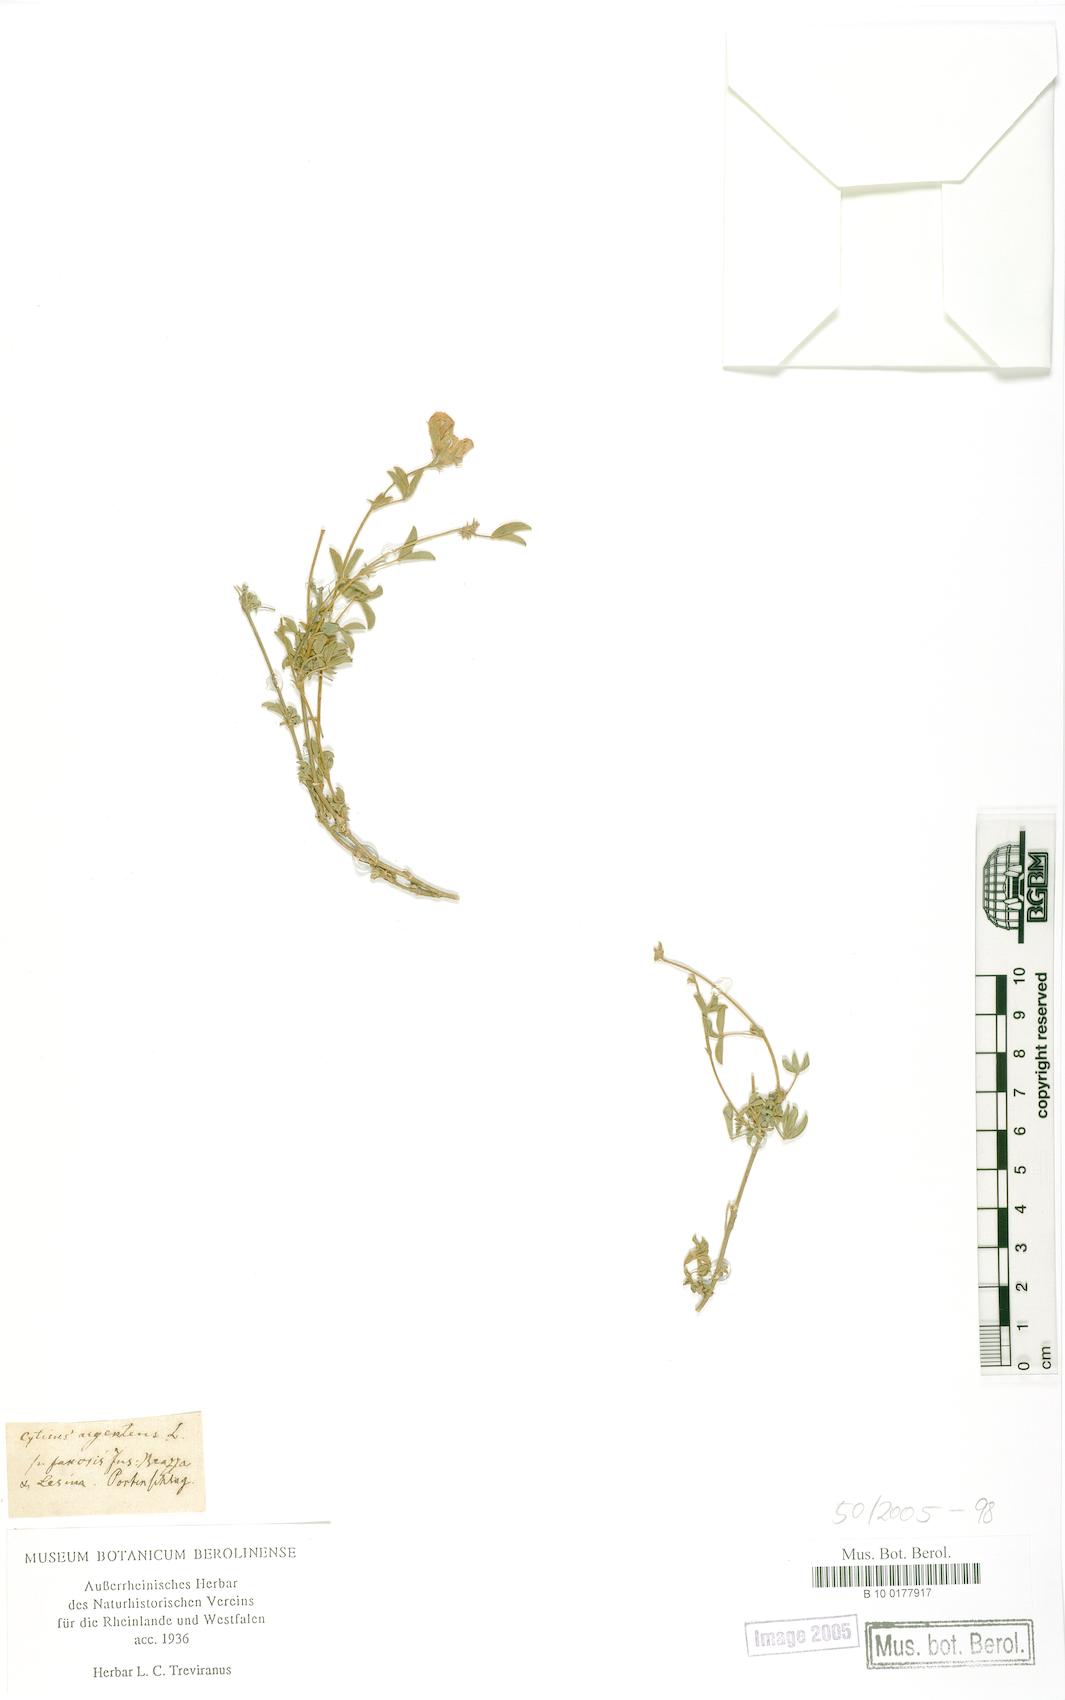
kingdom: Plantae
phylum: Tracheophyta
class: Magnoliopsida
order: Fabales
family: Fabaceae
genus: Argyrolobium
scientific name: Argyrolobium zanonii
